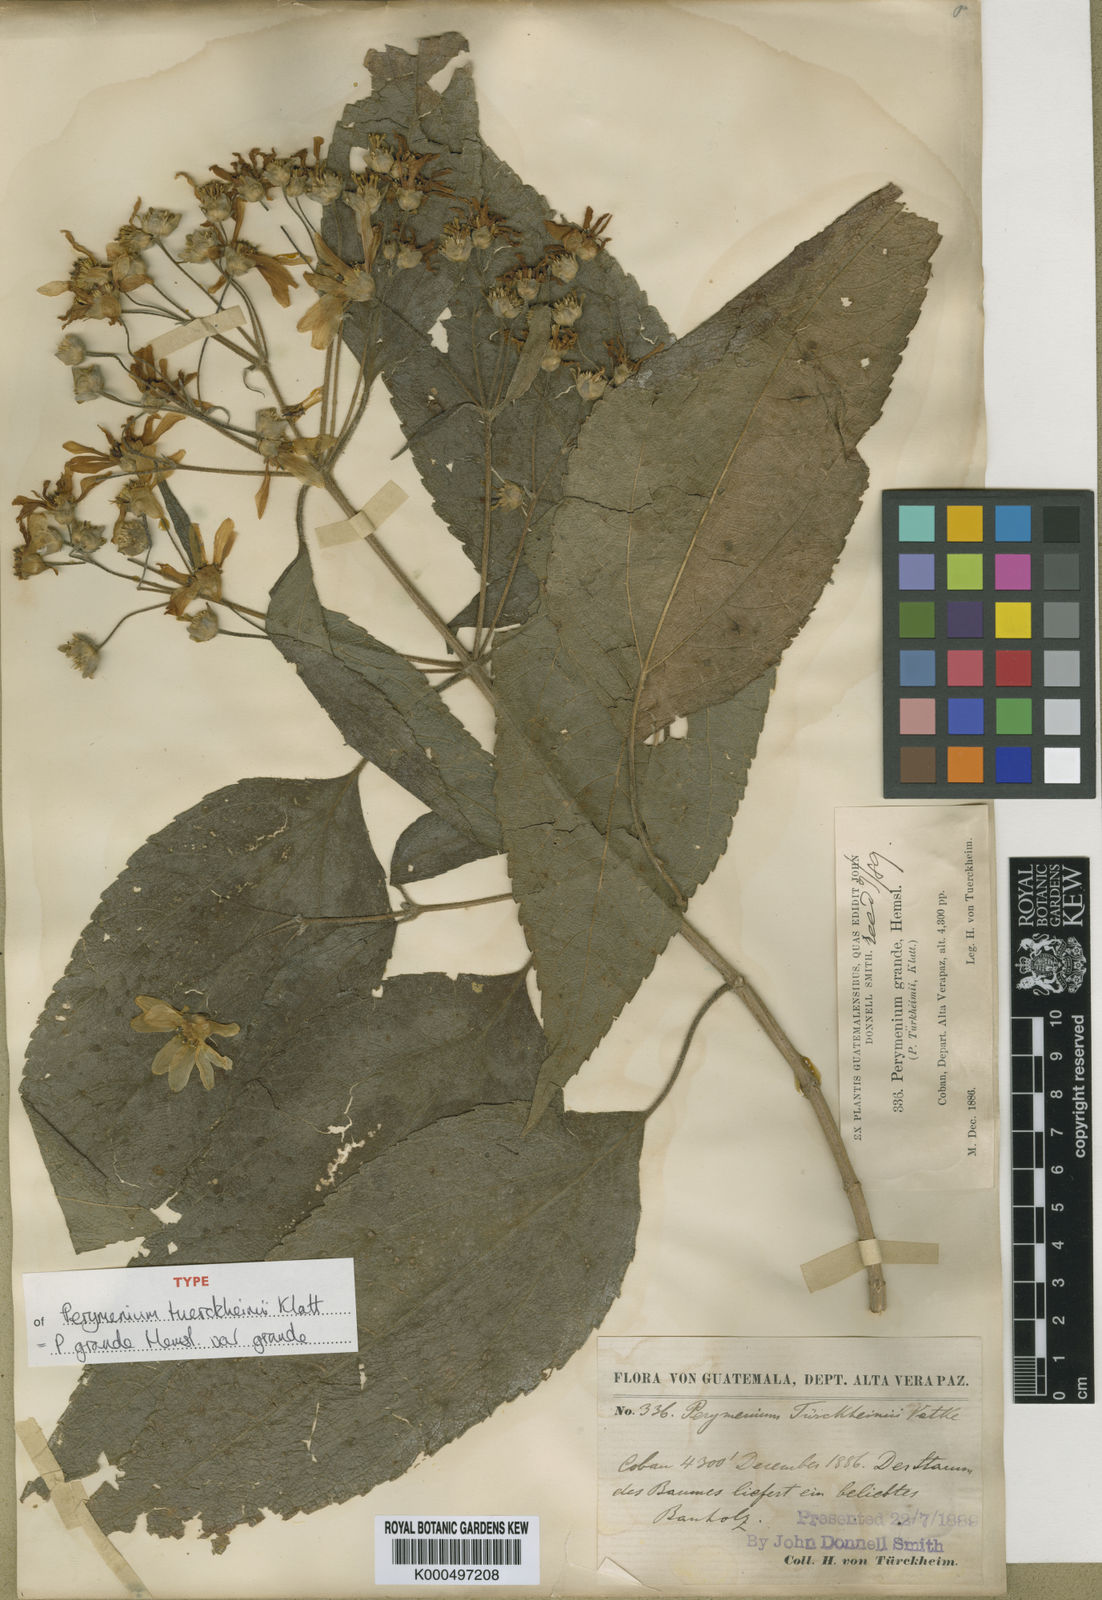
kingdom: Plantae
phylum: Tracheophyta
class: Magnoliopsida
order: Asterales
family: Asteraceae
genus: Perymenium
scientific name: Perymenium grande
